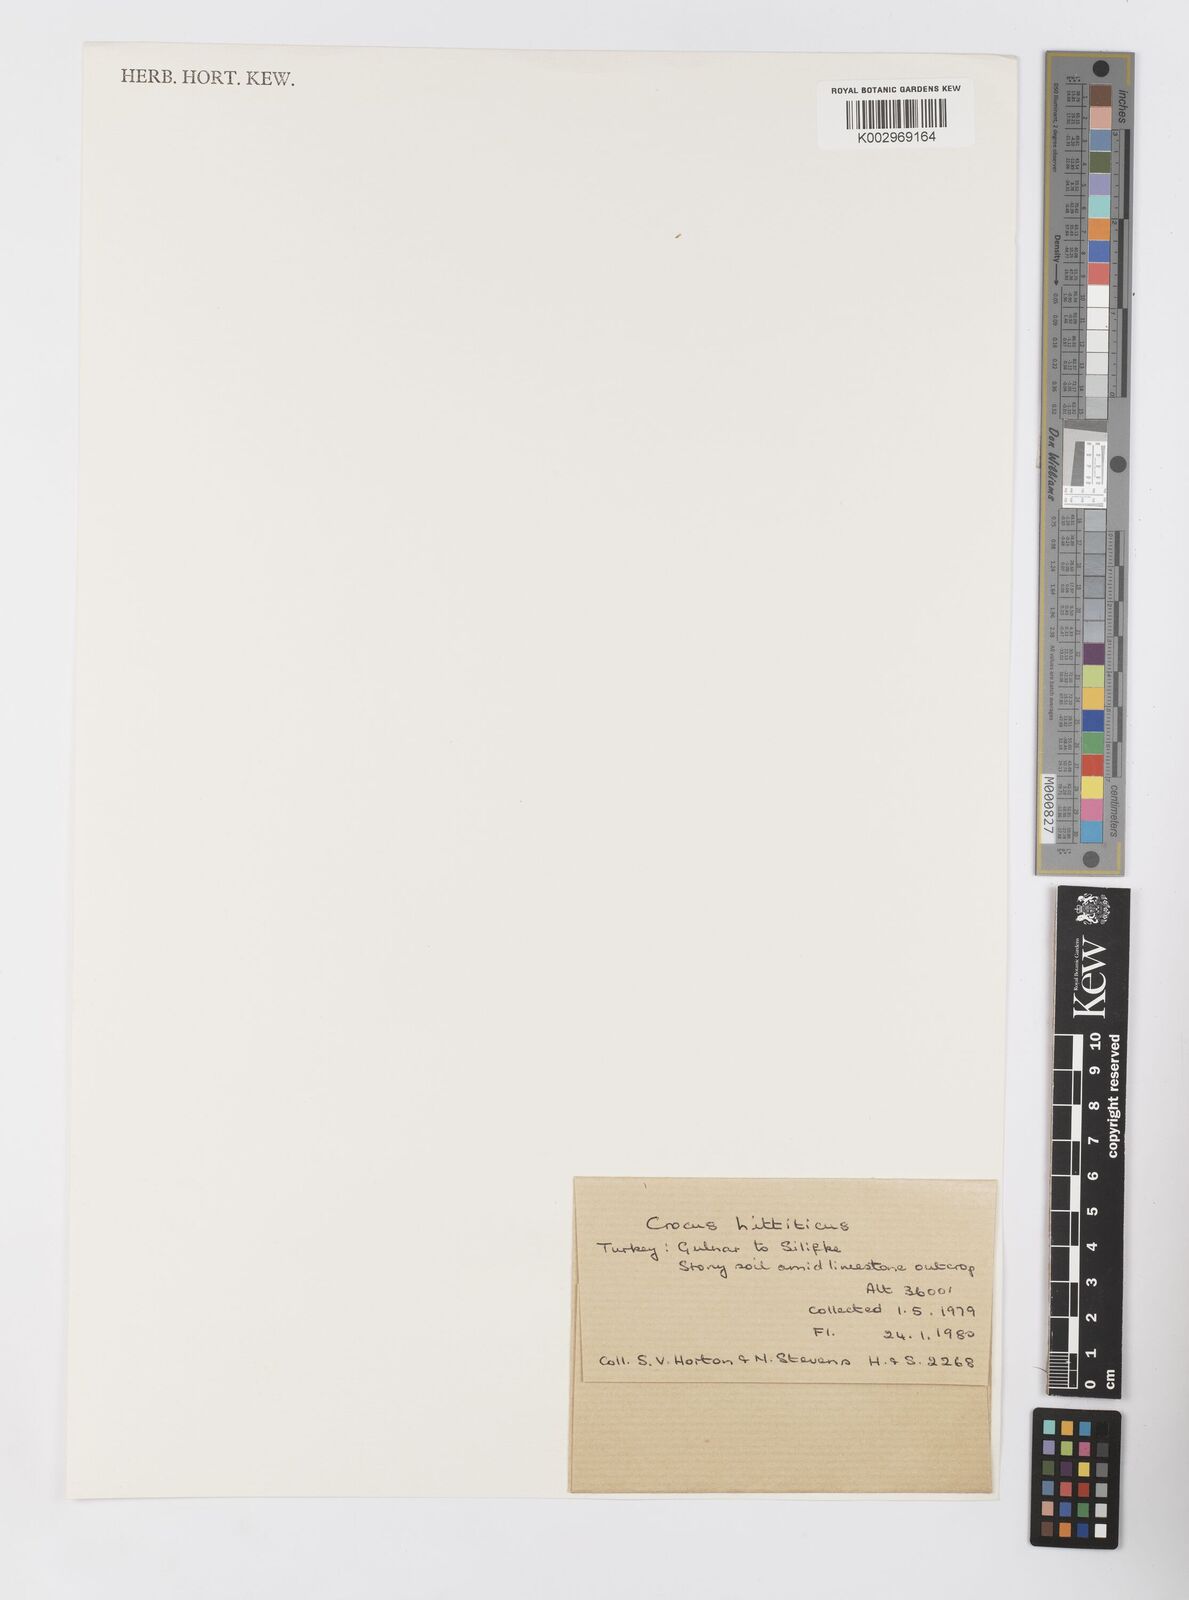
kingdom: Plantae
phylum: Tracheophyta
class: Liliopsida
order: Asparagales
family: Iridaceae
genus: Crocus
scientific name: Crocus hittiticus
